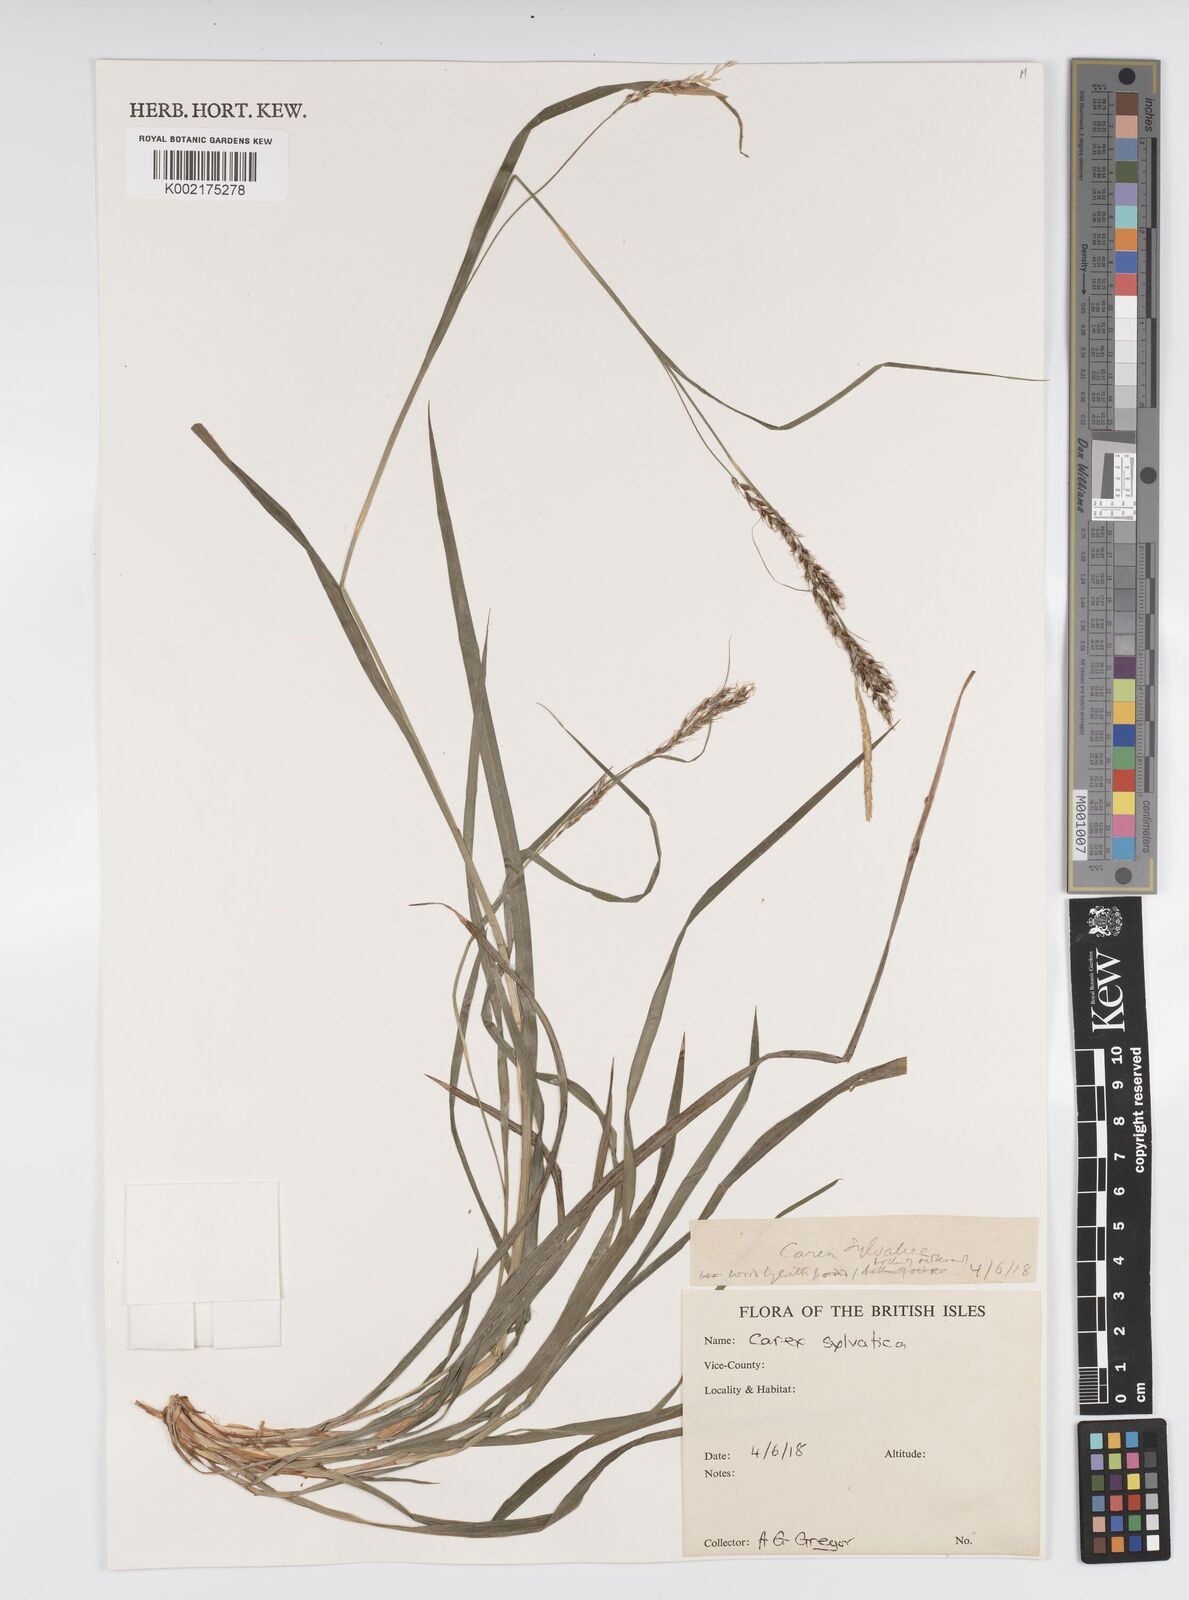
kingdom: Plantae
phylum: Tracheophyta
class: Liliopsida
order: Poales
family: Cyperaceae
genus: Carex
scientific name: Carex sylvatica
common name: Wood-sedge
